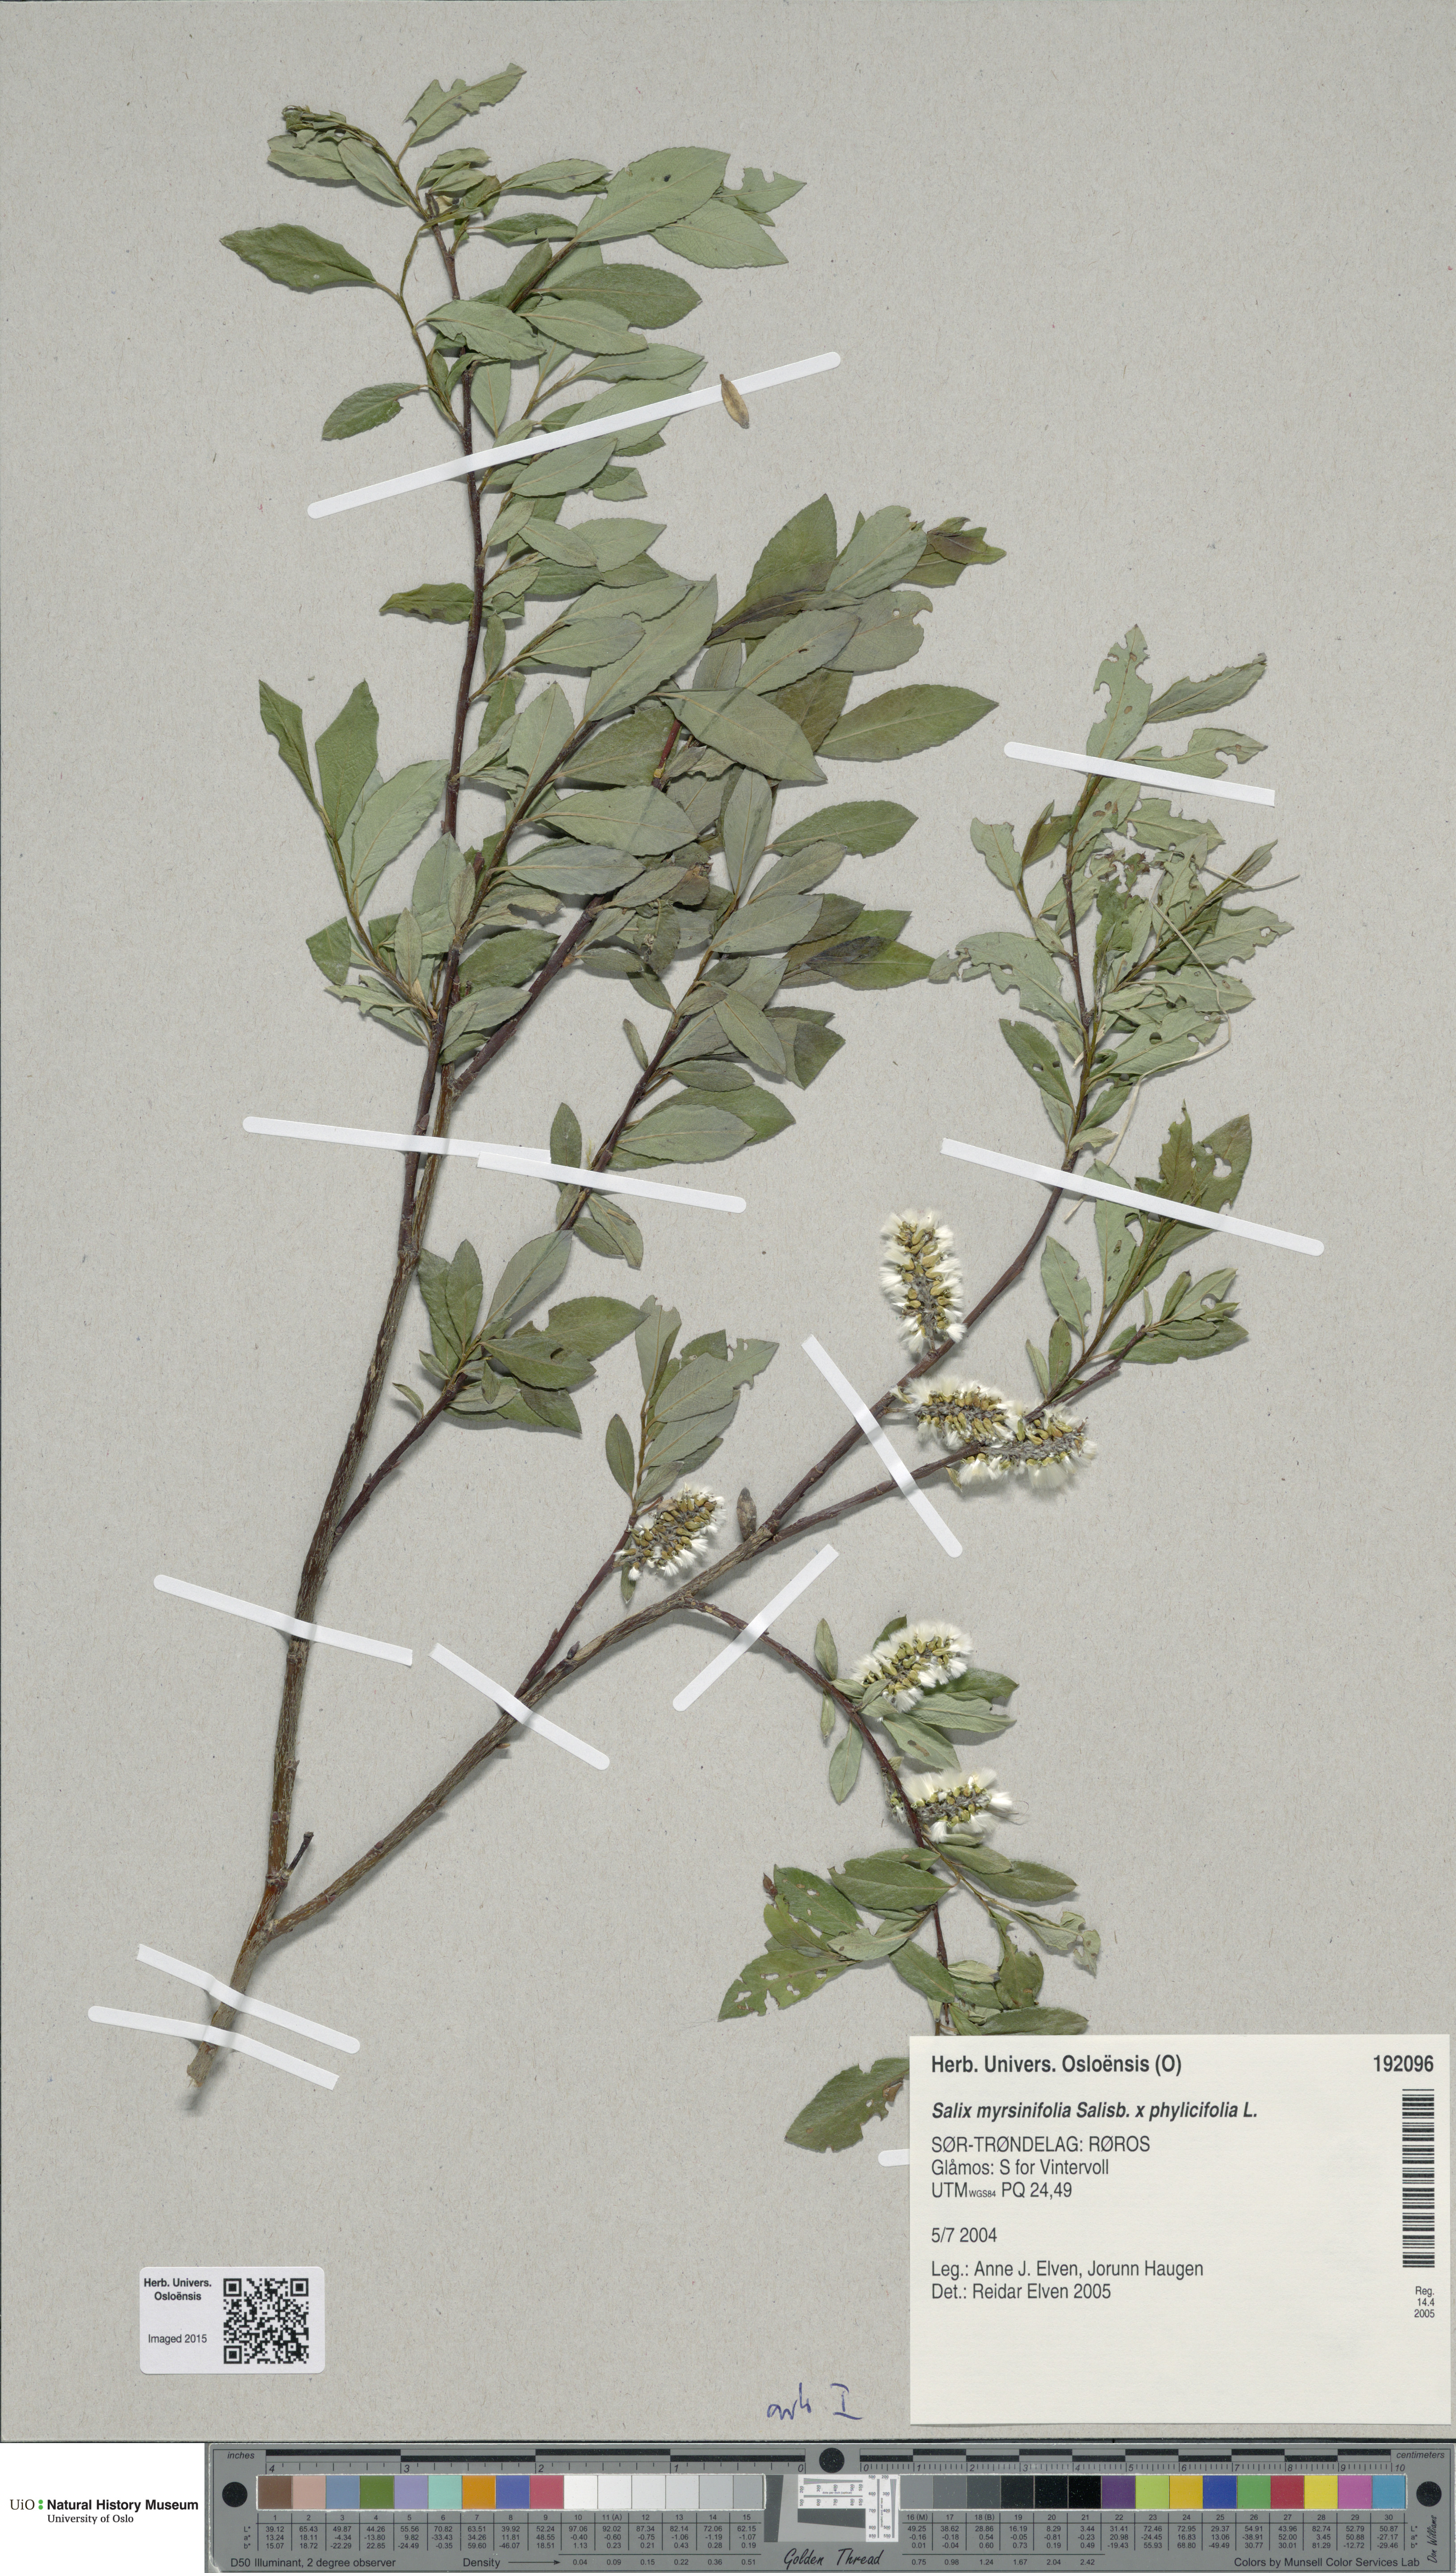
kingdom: Plantae
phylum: Tracheophyta
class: Magnoliopsida
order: Malpighiales
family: Salicaceae
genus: Salix
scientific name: Salix
